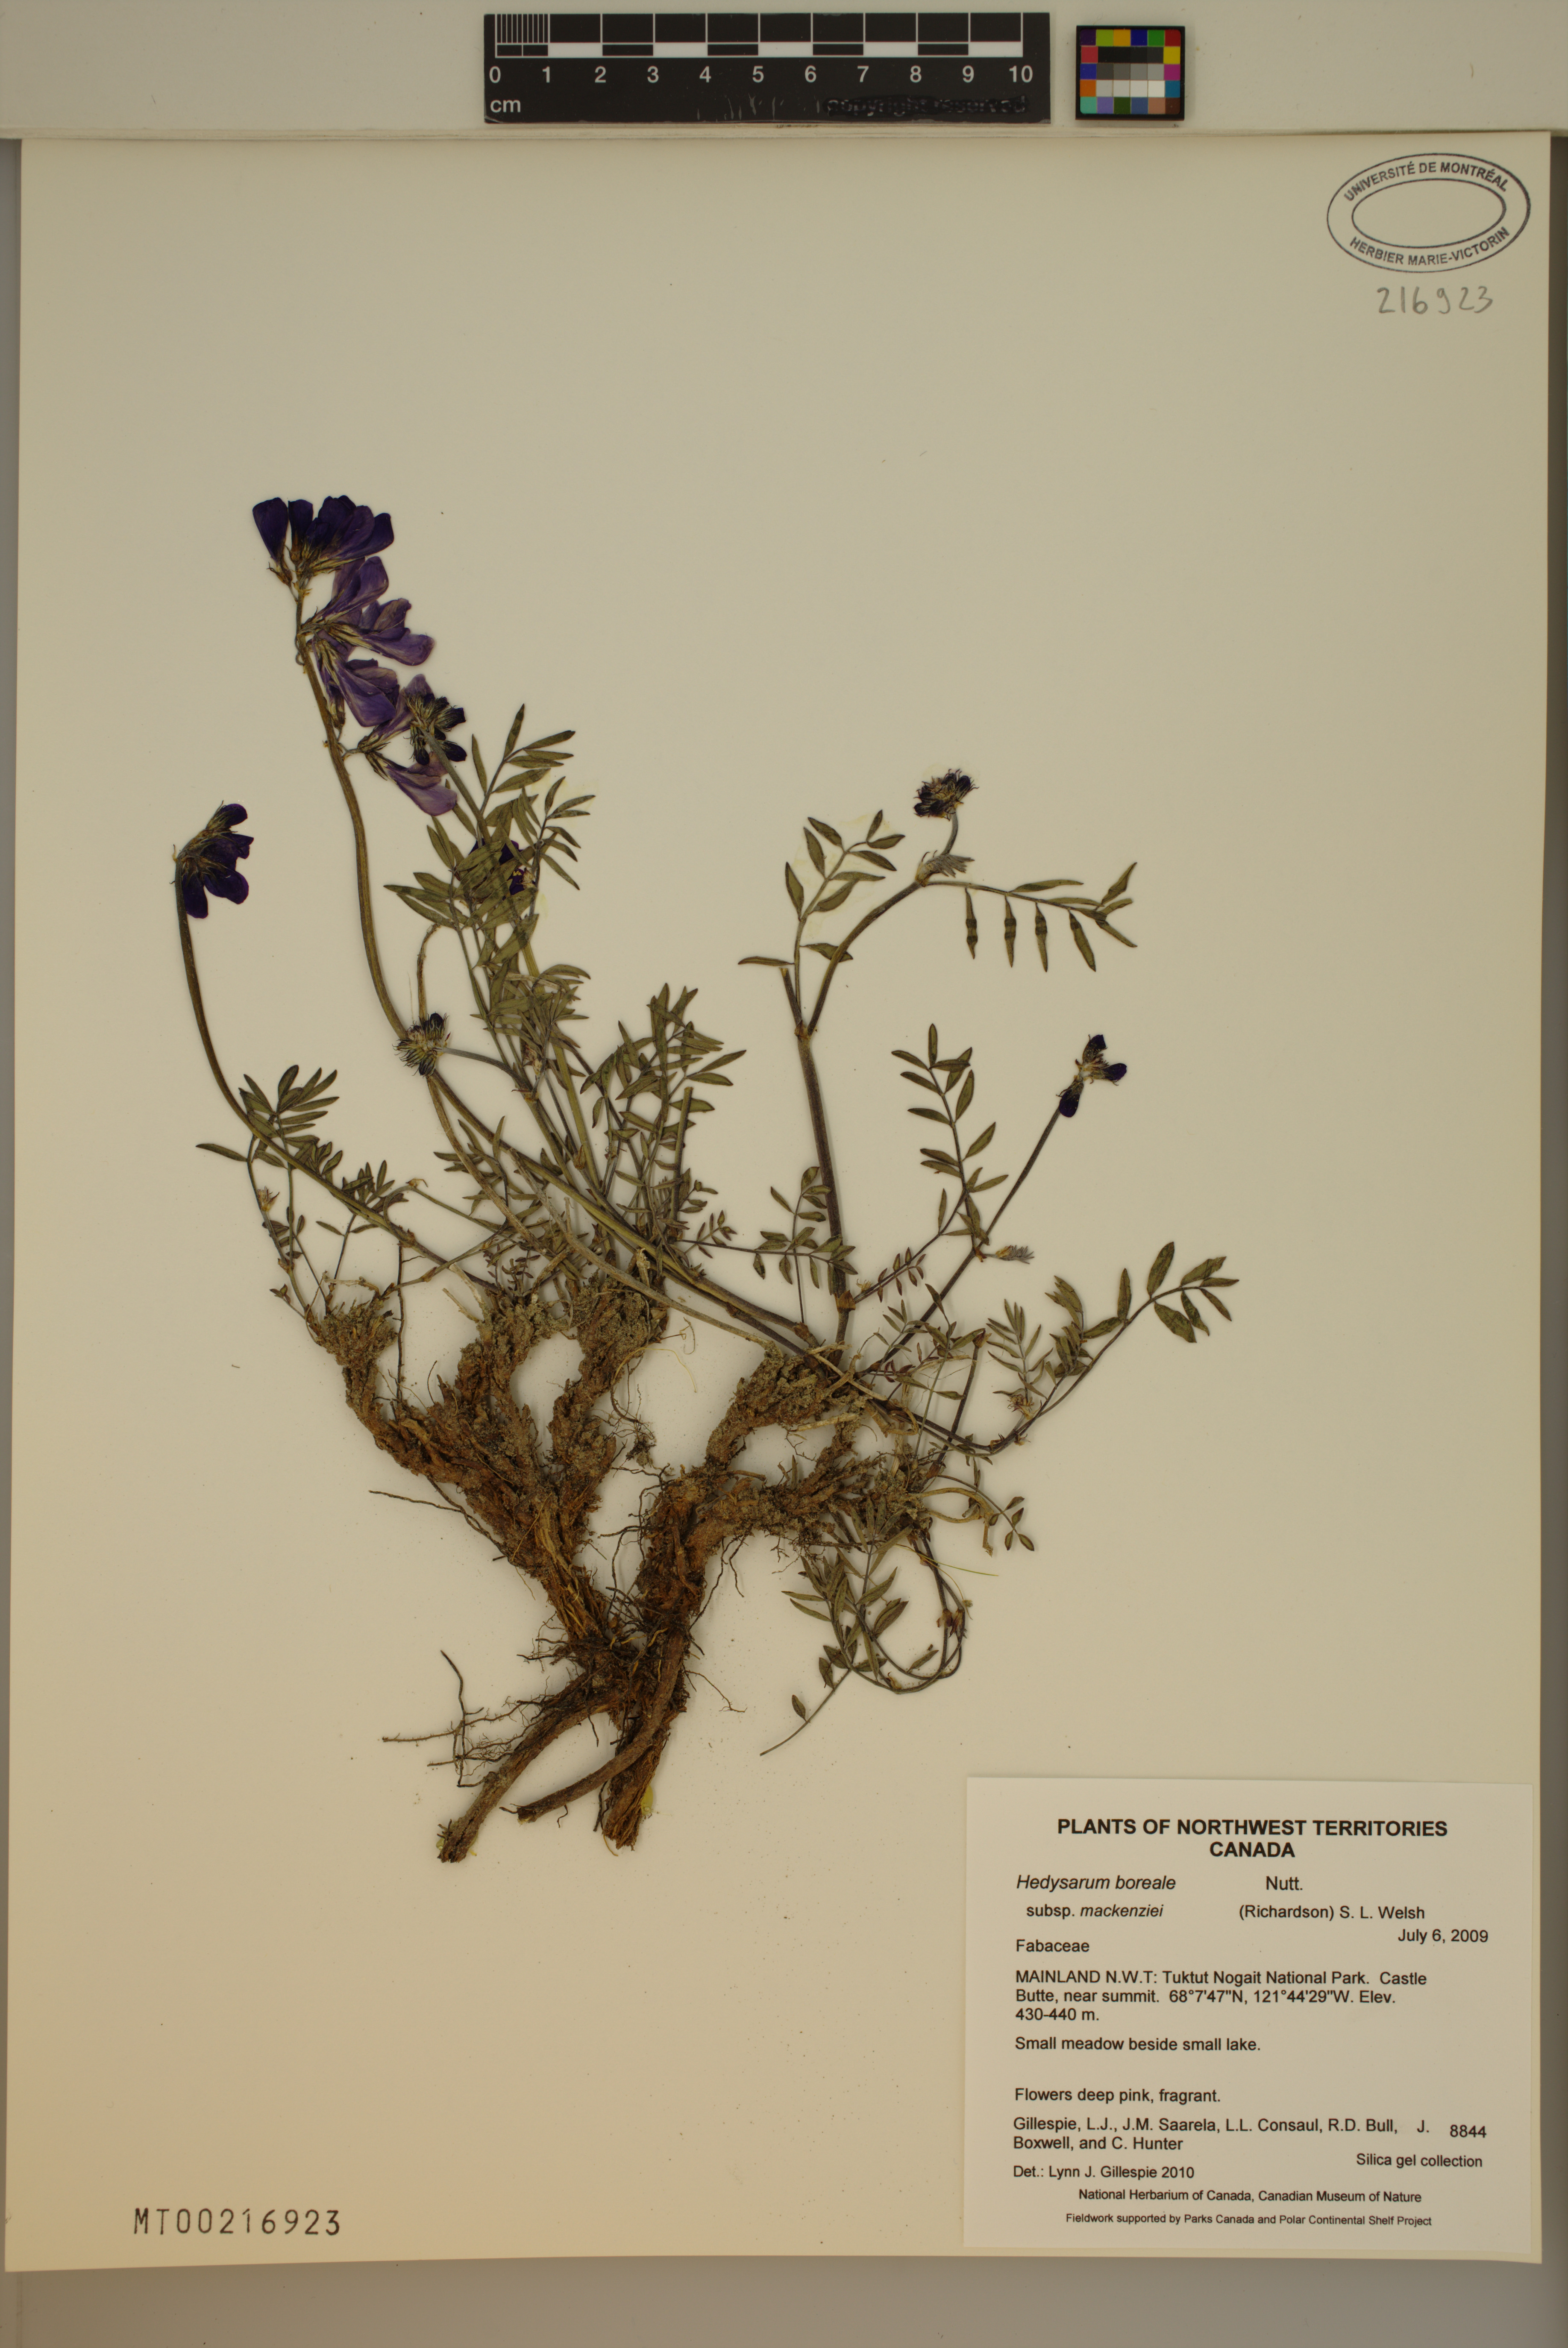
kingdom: Plantae
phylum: Tracheophyta
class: Magnoliopsida
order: Fabales
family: Fabaceae
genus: Hedysarum
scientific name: Hedysarum boreale
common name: Northern sweet-vetch
